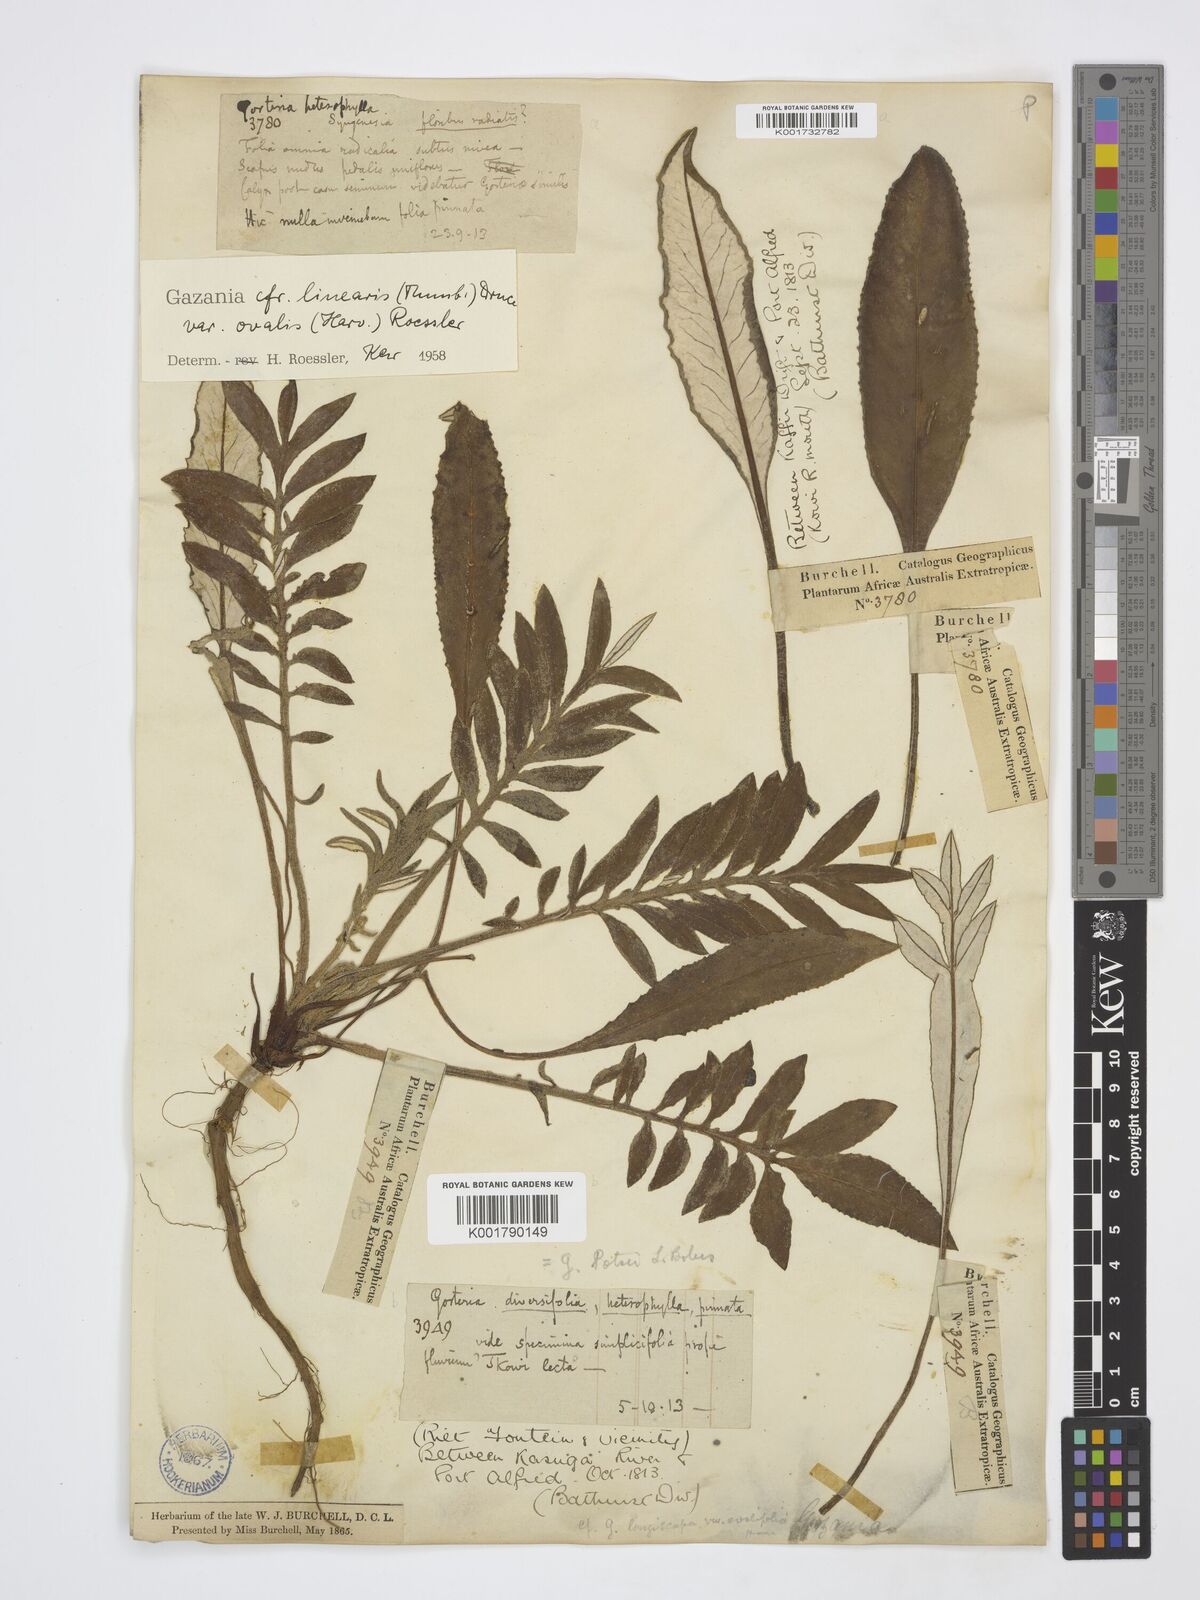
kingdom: Plantae
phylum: Tracheophyta
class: Magnoliopsida
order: Asterales
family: Asteraceae
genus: Gazania
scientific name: Gazania linearis
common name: Treasureflower
